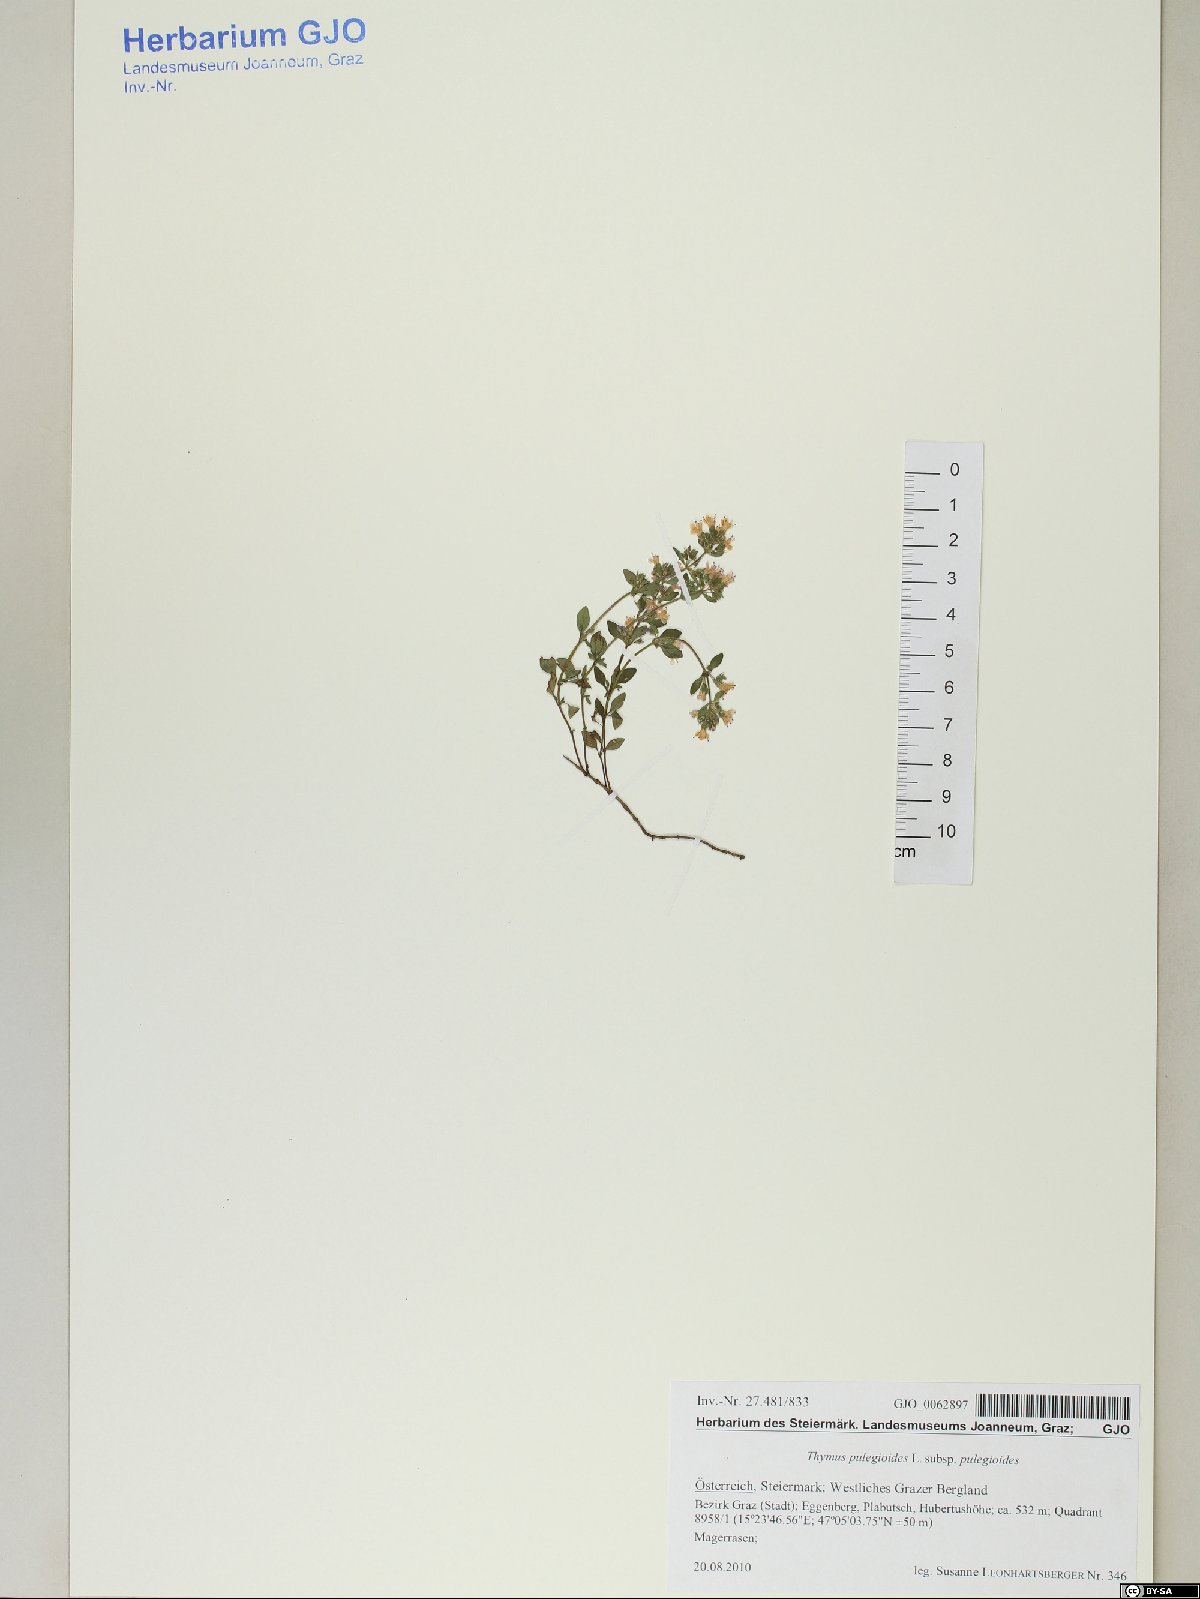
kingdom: Plantae
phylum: Tracheophyta
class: Magnoliopsida
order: Lamiales
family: Lamiaceae
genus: Thymus
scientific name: Thymus pulegioides
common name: Large thyme
